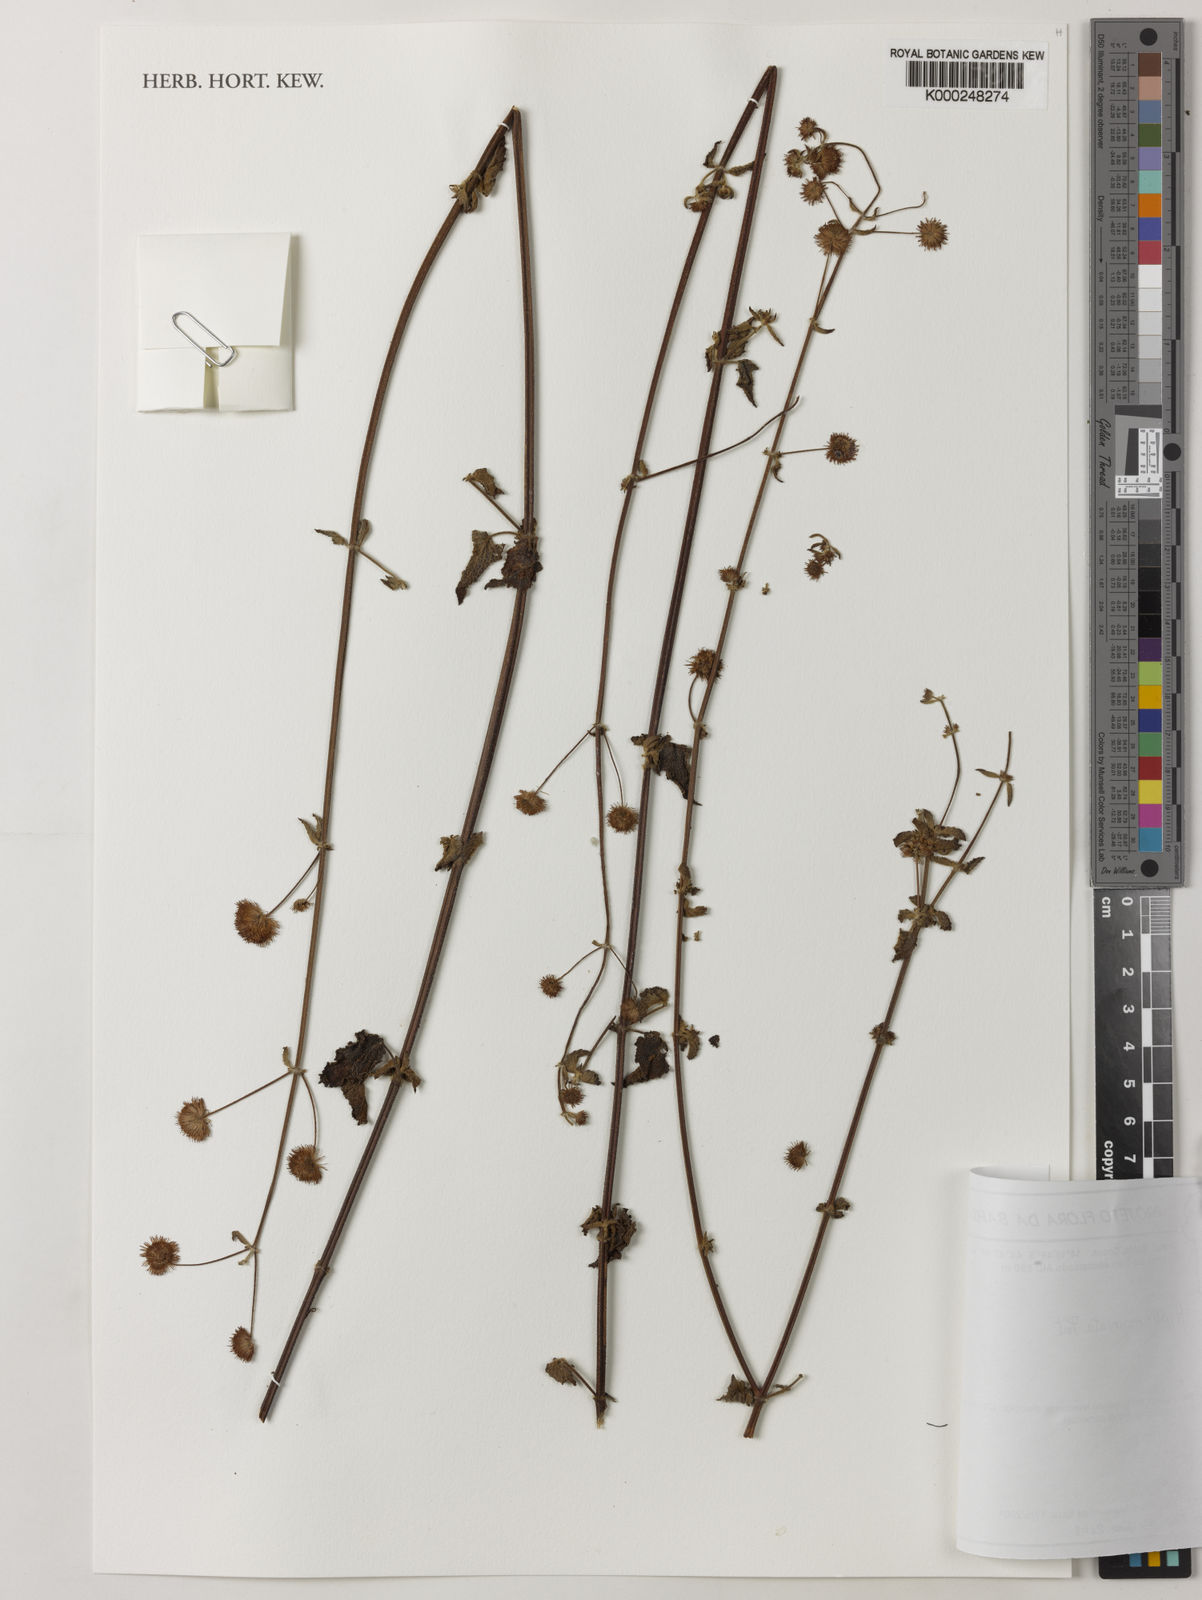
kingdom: Plantae
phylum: Tracheophyta
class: Magnoliopsida
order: Lamiales
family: Lamiaceae
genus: Hyptis
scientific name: Hyptis recurvata
